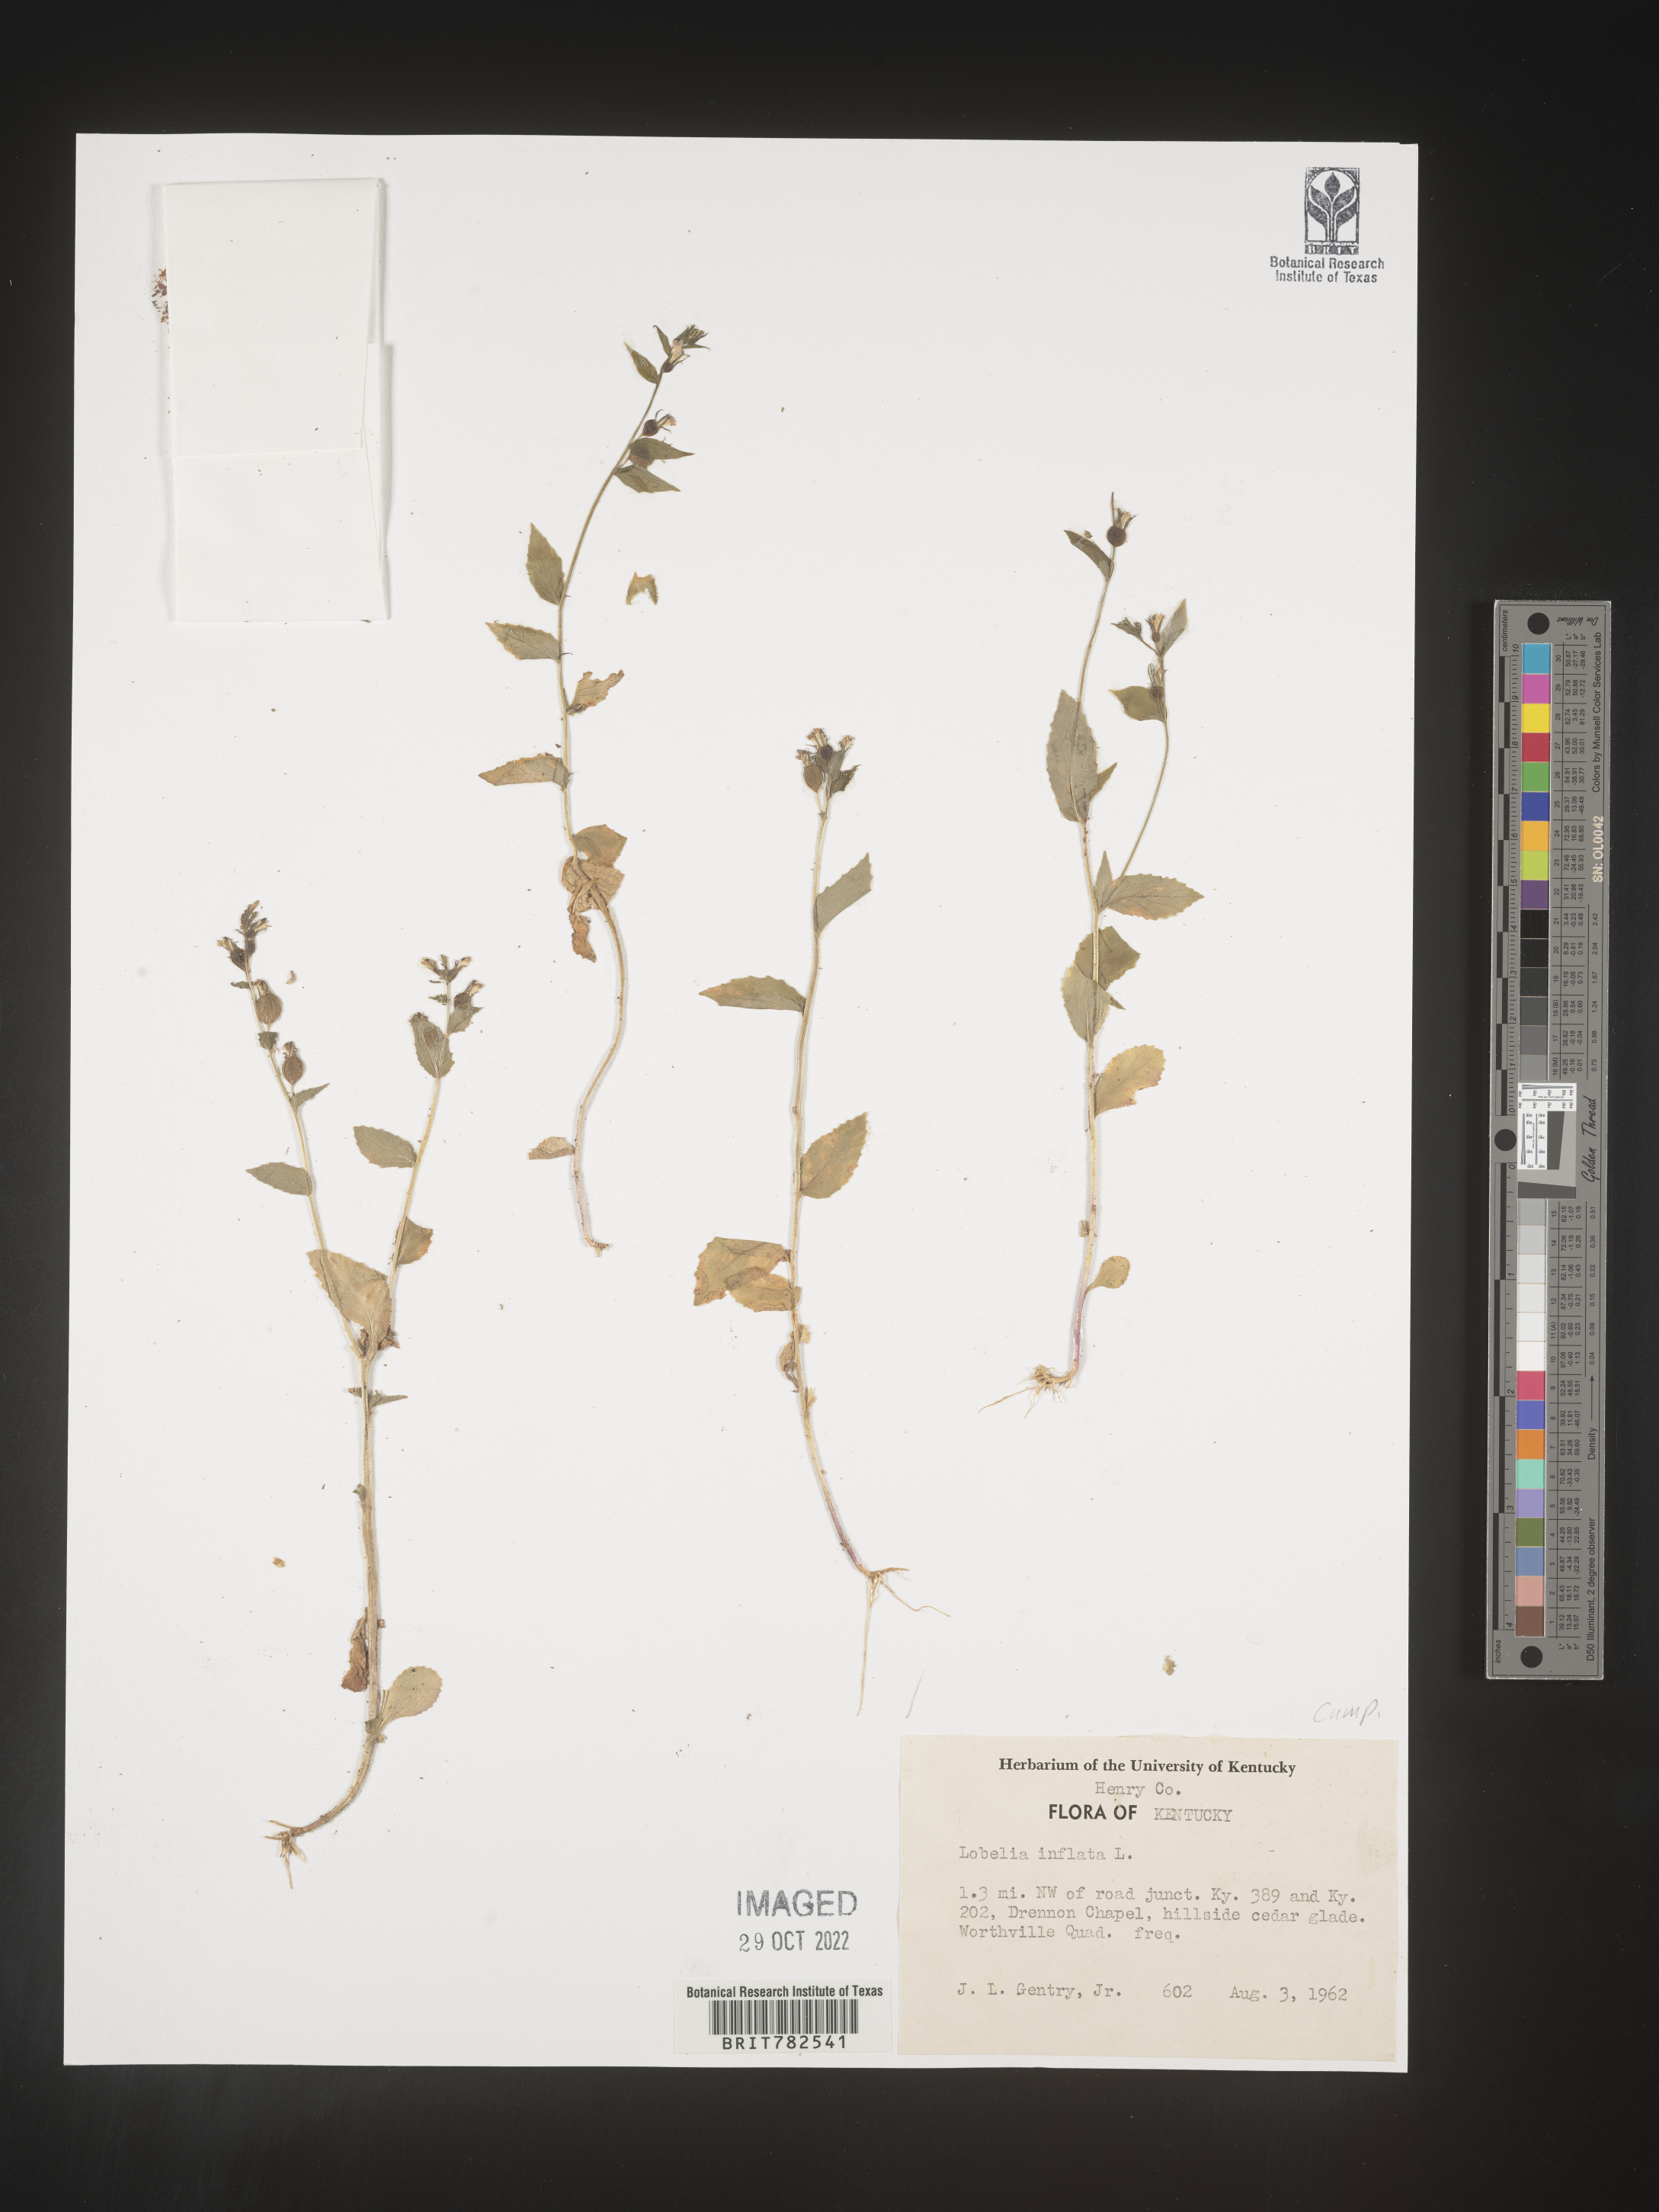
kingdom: Plantae
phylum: Tracheophyta
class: Magnoliopsida
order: Asterales
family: Campanulaceae
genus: Lobelia
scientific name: Lobelia inflata
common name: Indian tobacco
